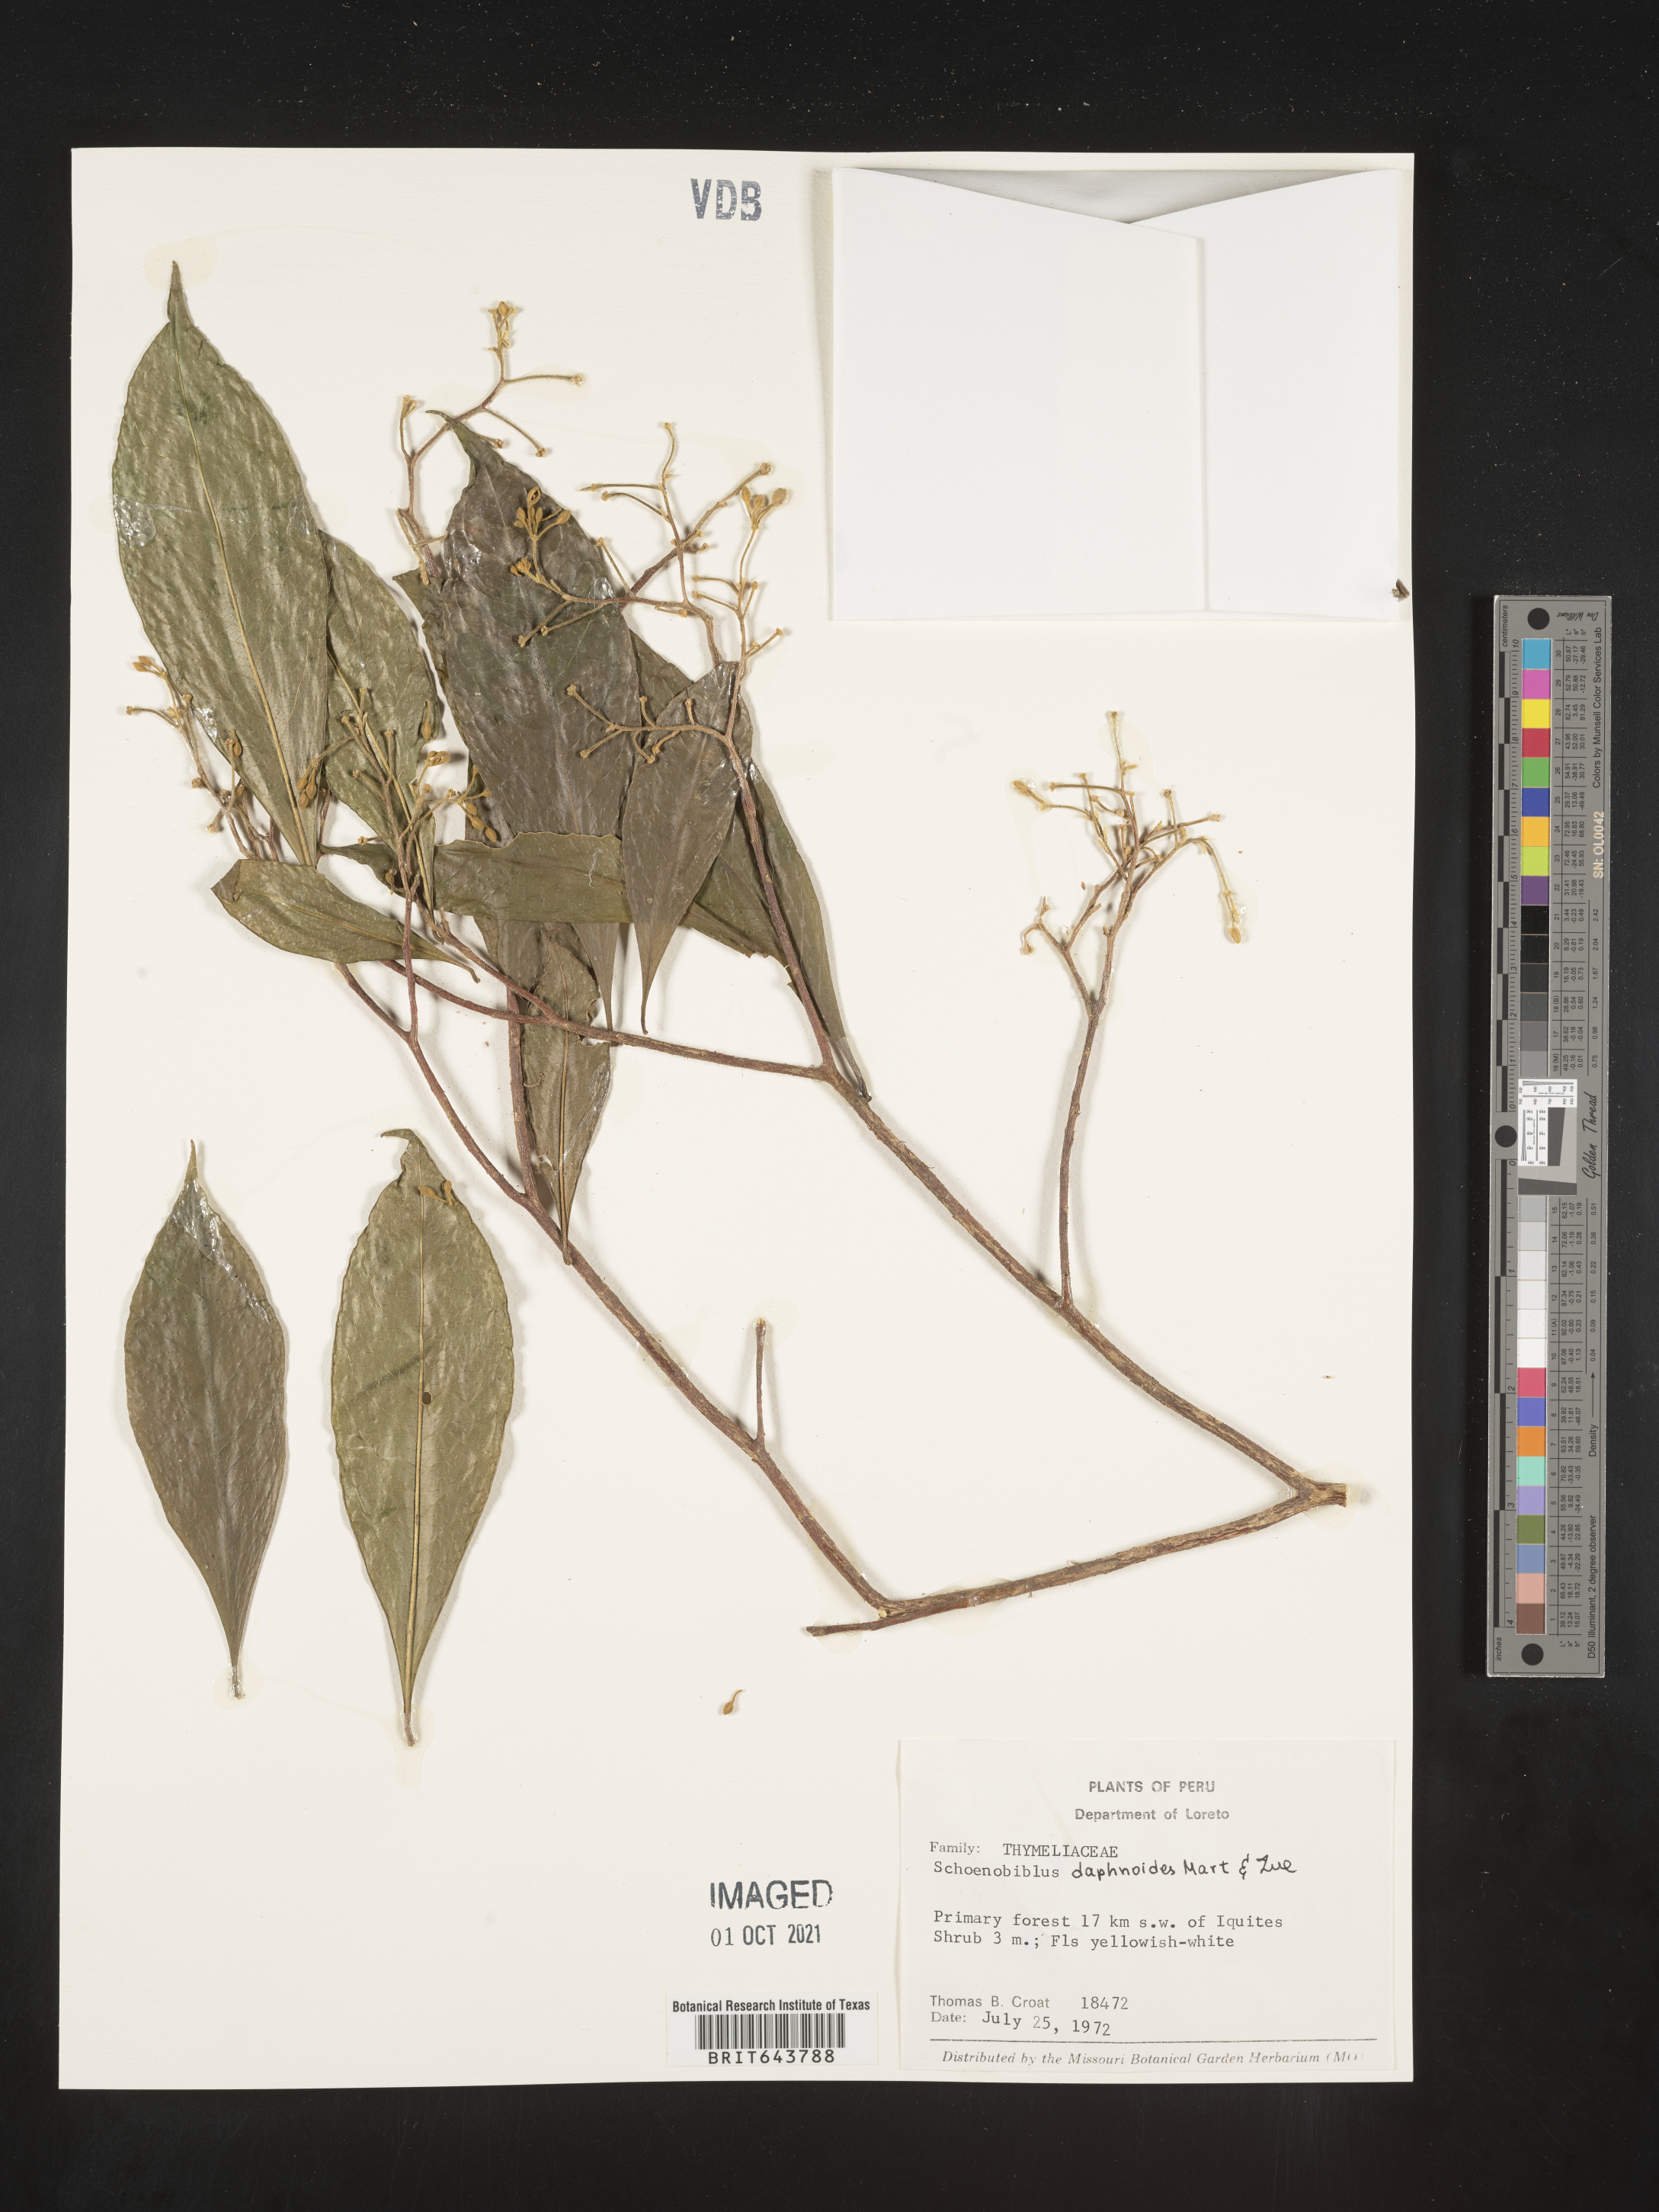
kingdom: Plantae
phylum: Tracheophyta
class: Magnoliopsida
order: Malvales
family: Thymelaeaceae
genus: Schoenobiblus
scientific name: Schoenobiblus
